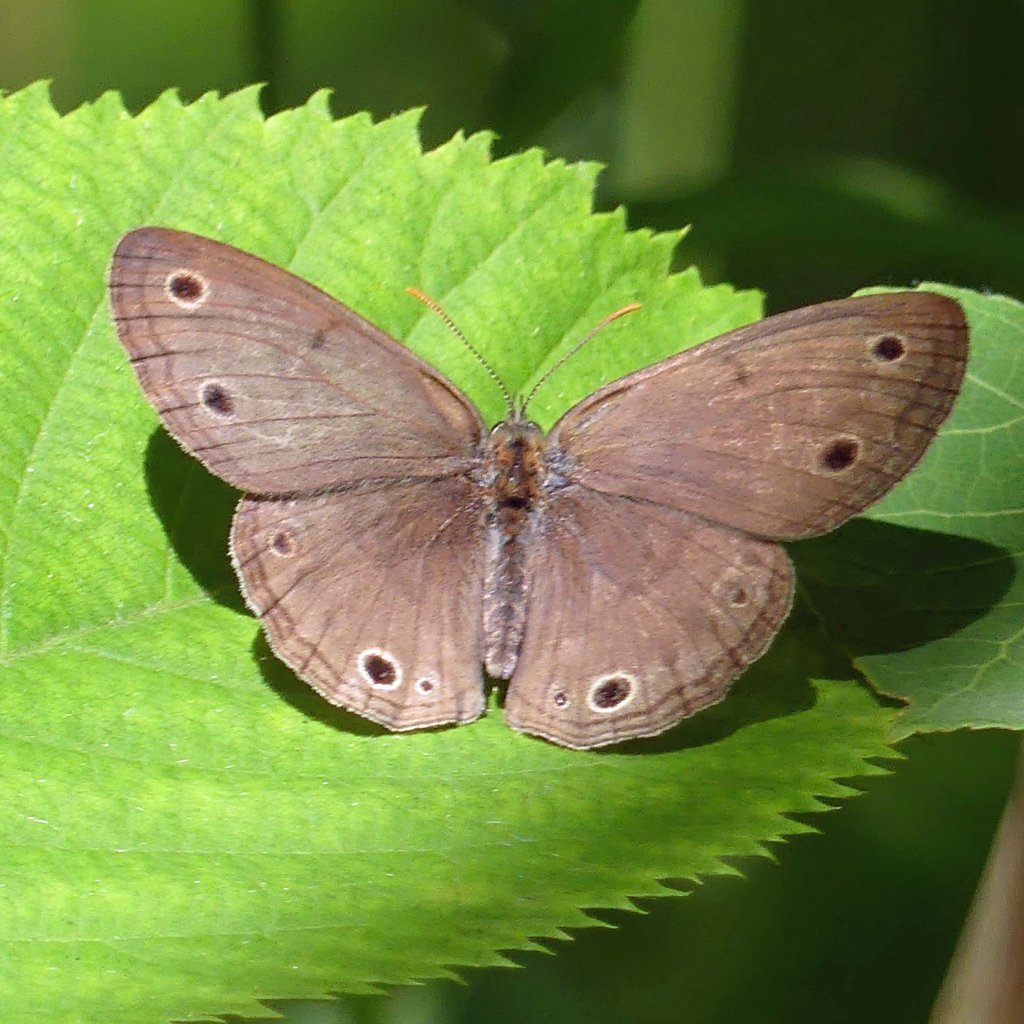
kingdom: Animalia
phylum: Arthropoda
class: Insecta
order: Lepidoptera
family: Nymphalidae
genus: Euptychia
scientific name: Euptychia cymela
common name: Little Wood Satyr
